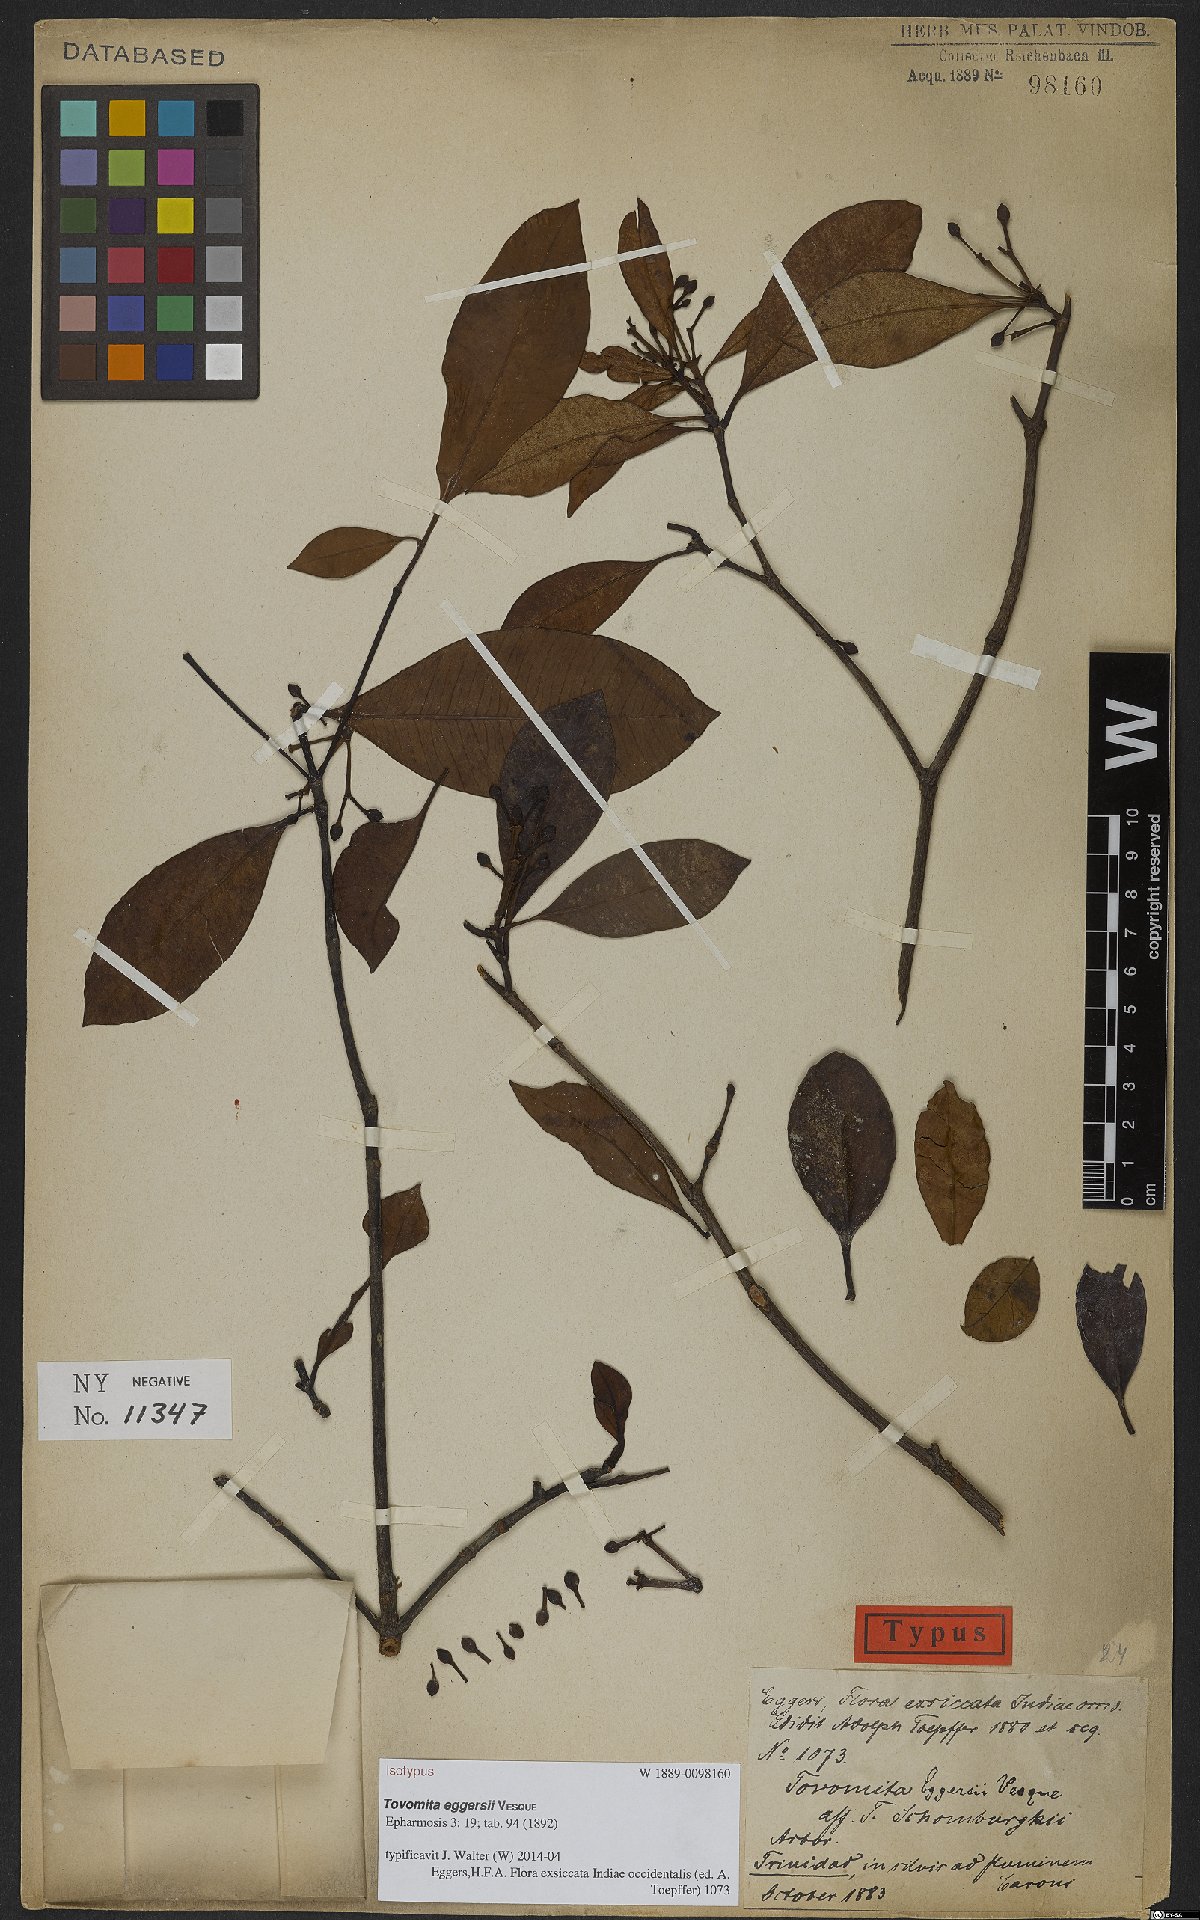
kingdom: Plantae
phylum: Tracheophyta
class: Magnoliopsida
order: Malpighiales
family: Clusiaceae
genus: Tovomita
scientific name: Tovomita eggersii
